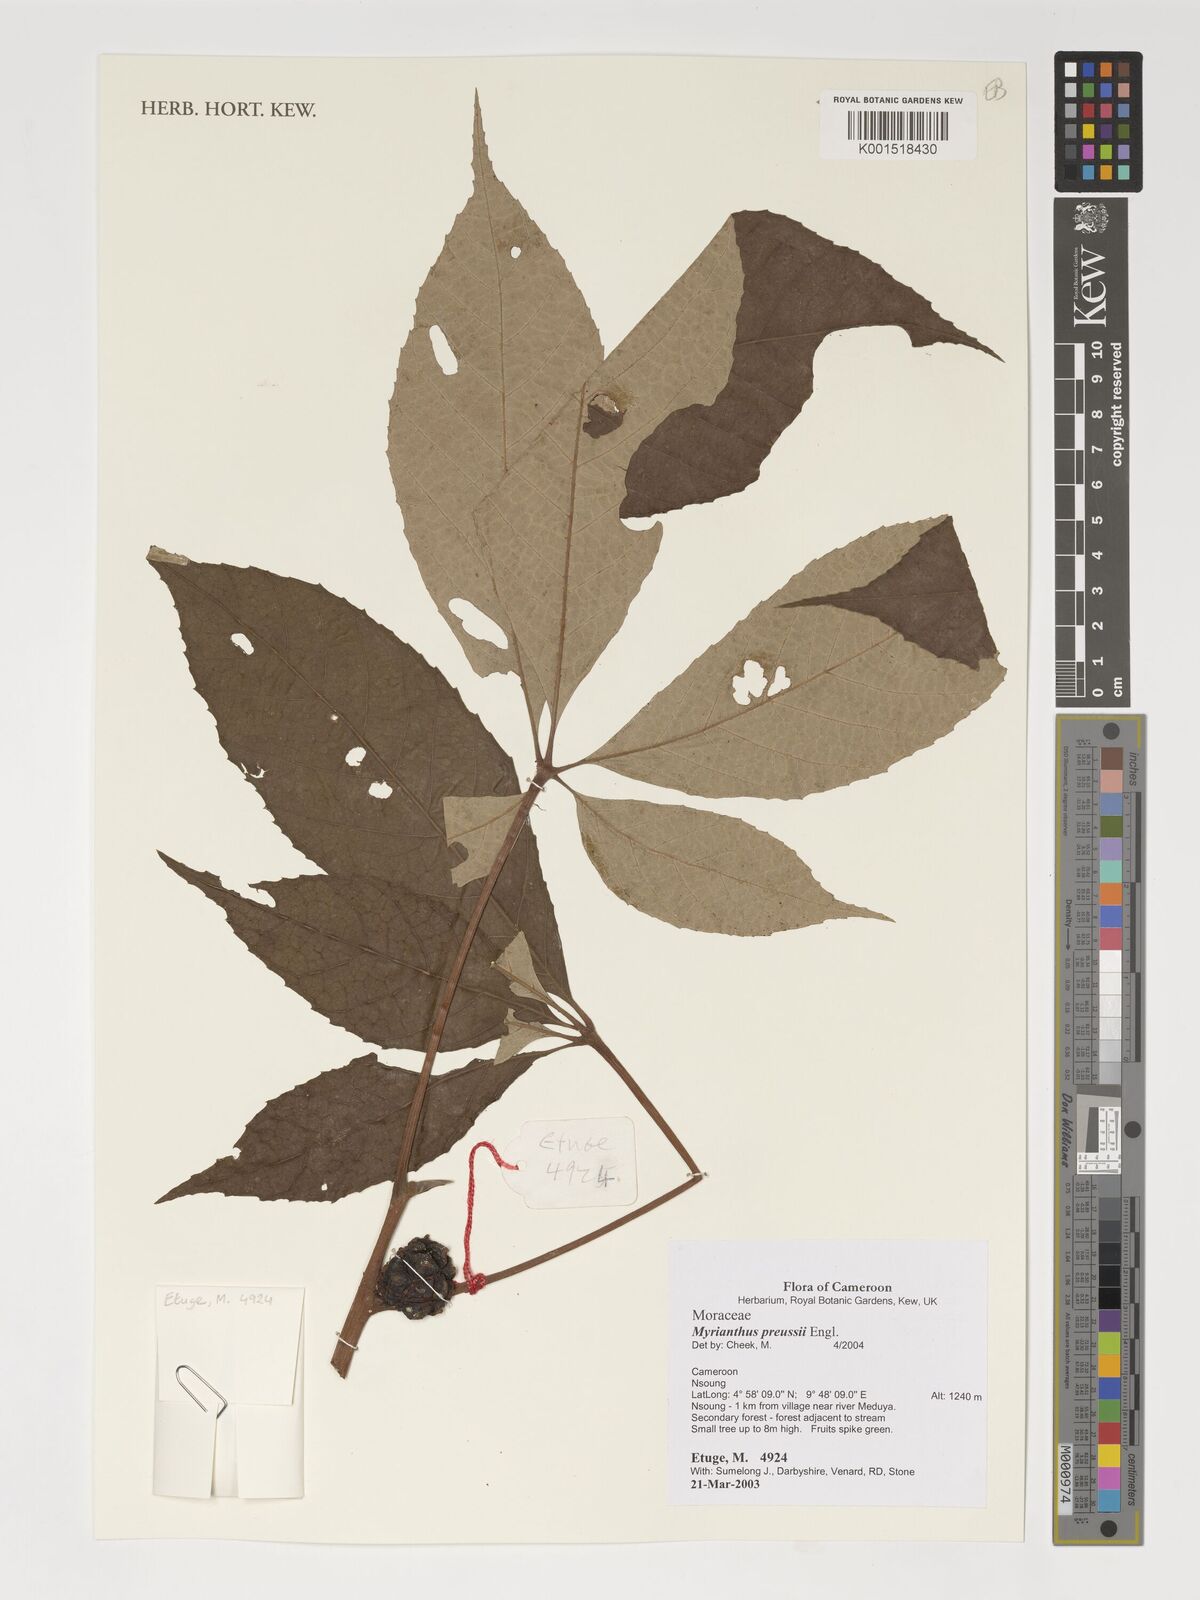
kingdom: Plantae
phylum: Tracheophyta
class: Magnoliopsida
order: Rosales
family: Urticaceae
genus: Myrianthus
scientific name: Myrianthus preussii
